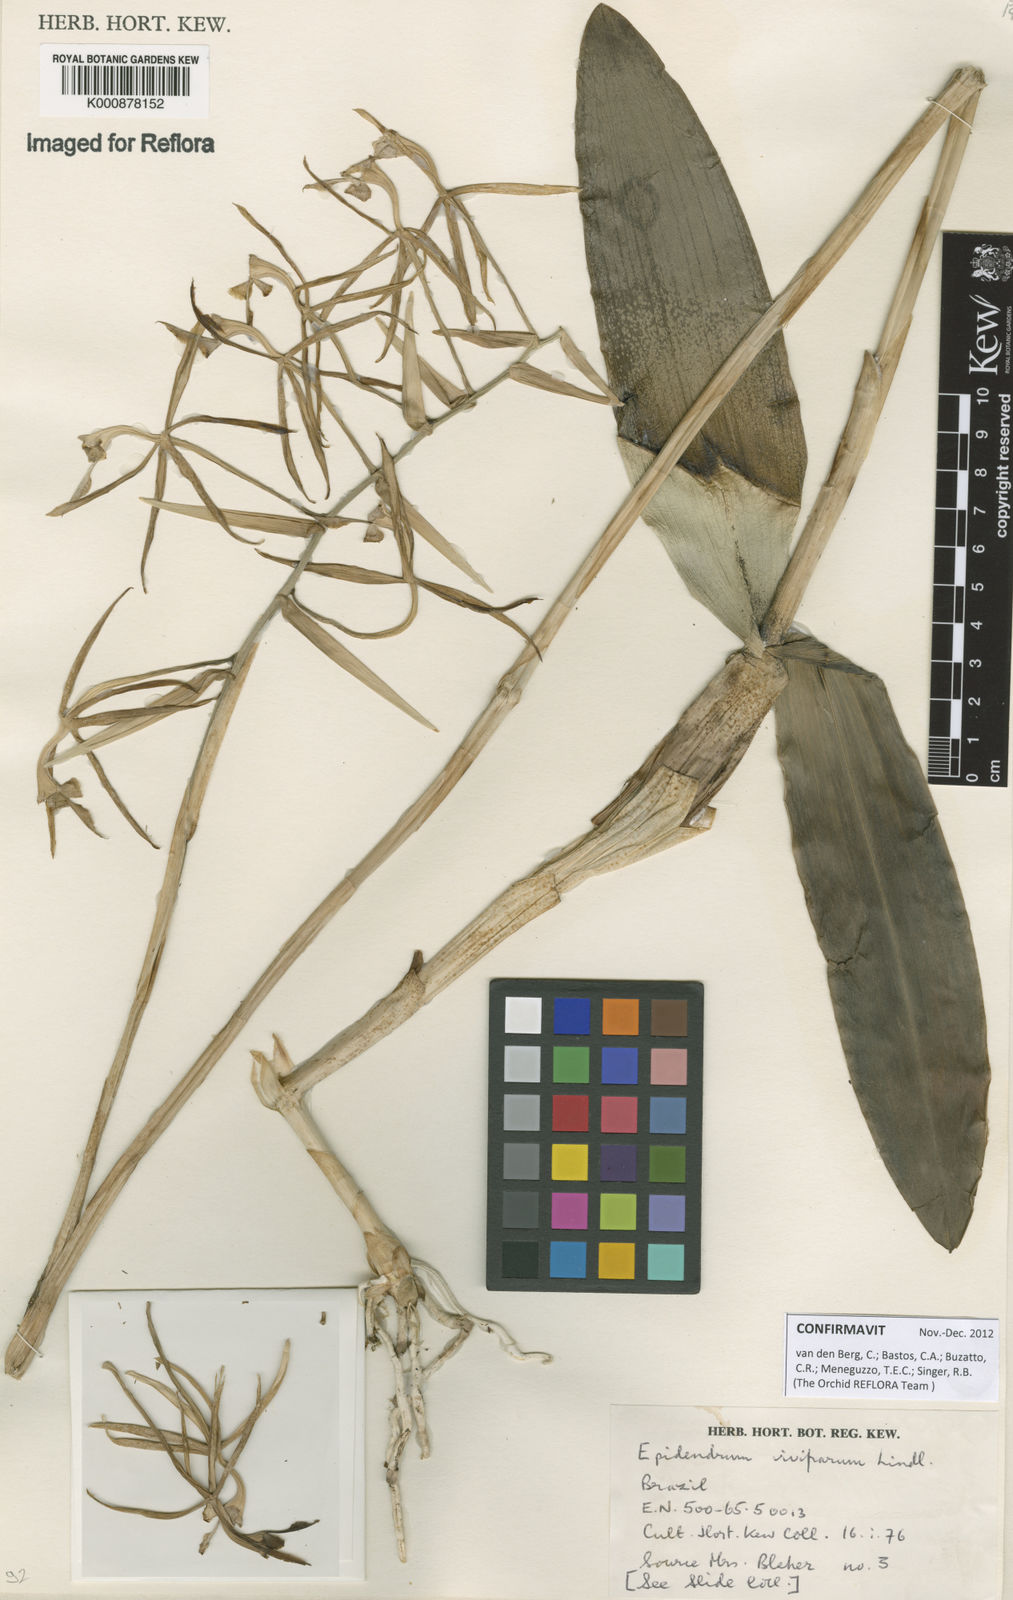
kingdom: Plantae
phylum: Tracheophyta
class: Liliopsida
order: Asparagales
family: Orchidaceae
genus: Epidendrum
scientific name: Epidendrum viviparum
